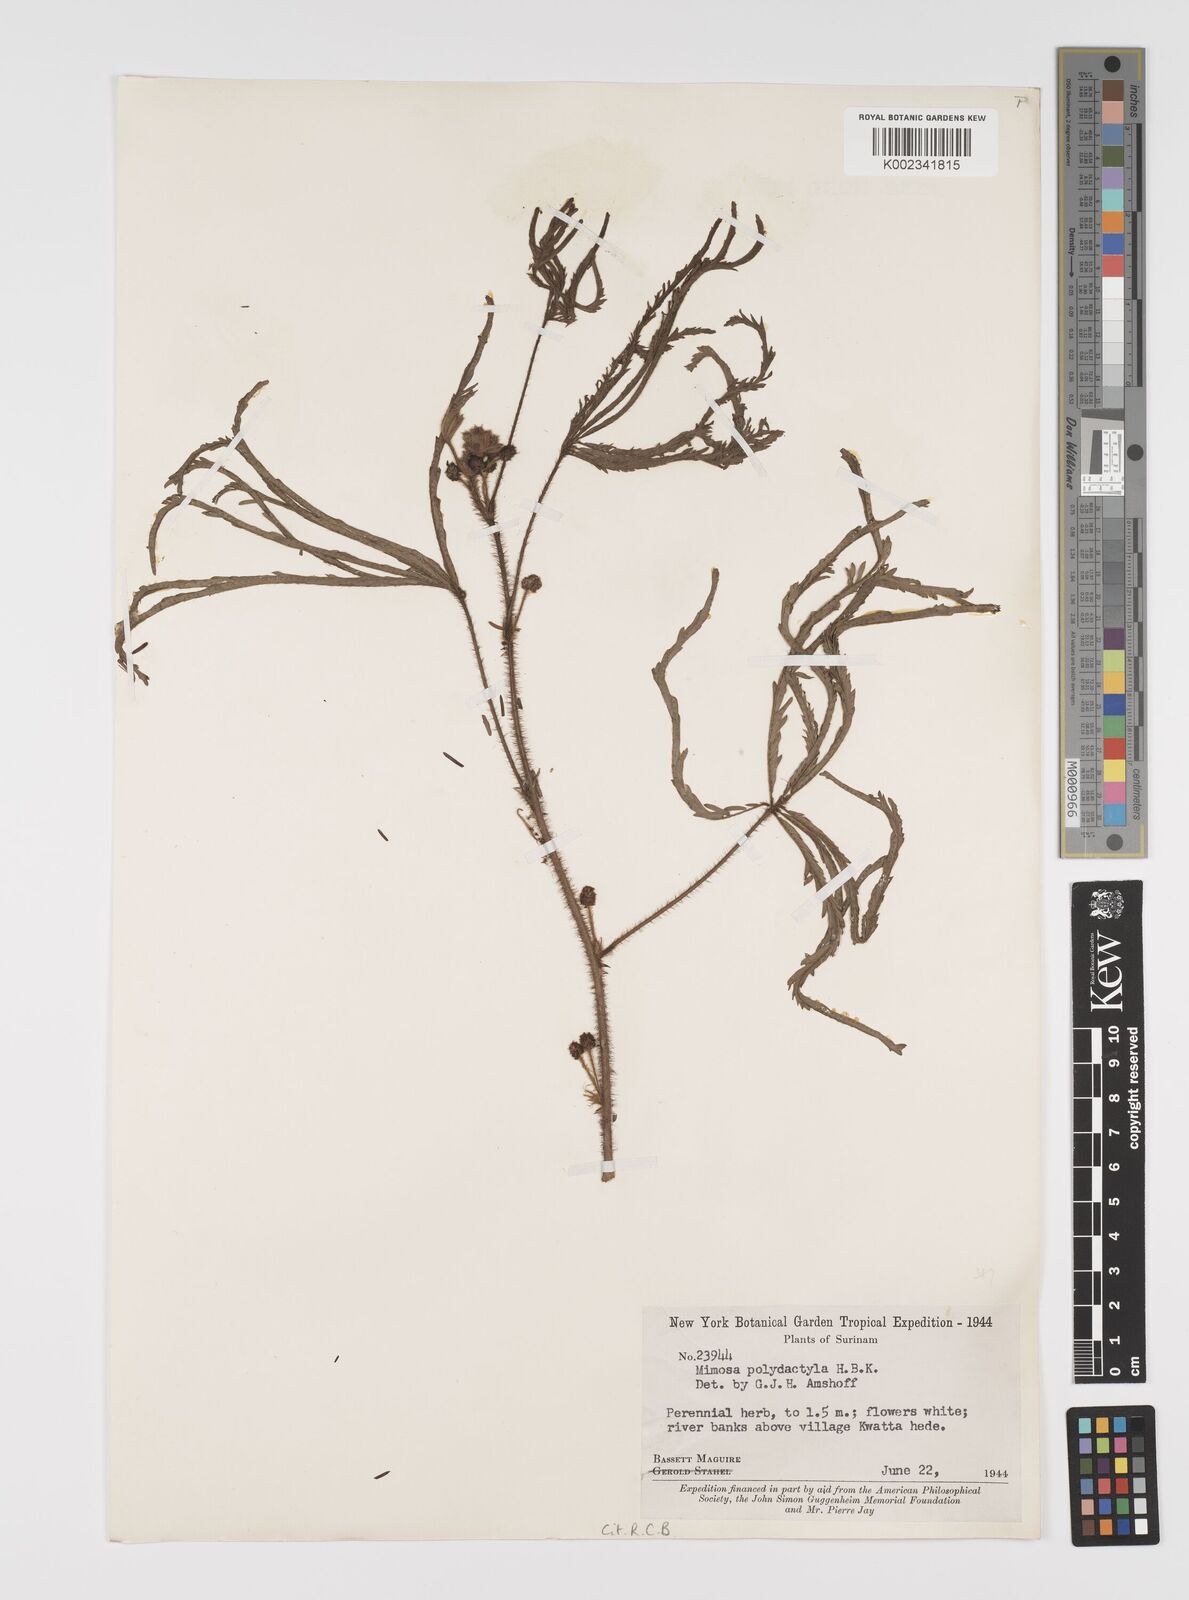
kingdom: Plantae
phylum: Tracheophyta
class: Magnoliopsida
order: Fabales
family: Fabaceae
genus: Mimosa
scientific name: Mimosa polydactyla
